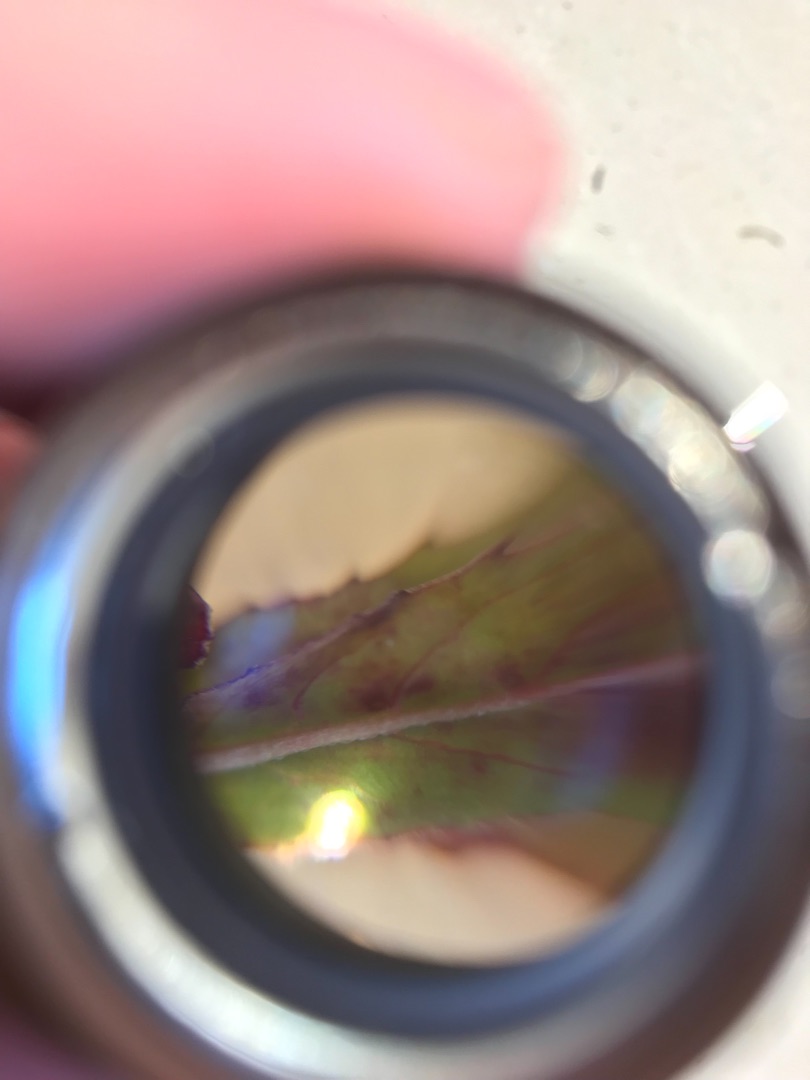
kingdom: Plantae
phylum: Tracheophyta
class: Magnoliopsida
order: Myrtales
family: Onagraceae
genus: Epilobium
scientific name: Epilobium obscurum
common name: Ris-dueurt
